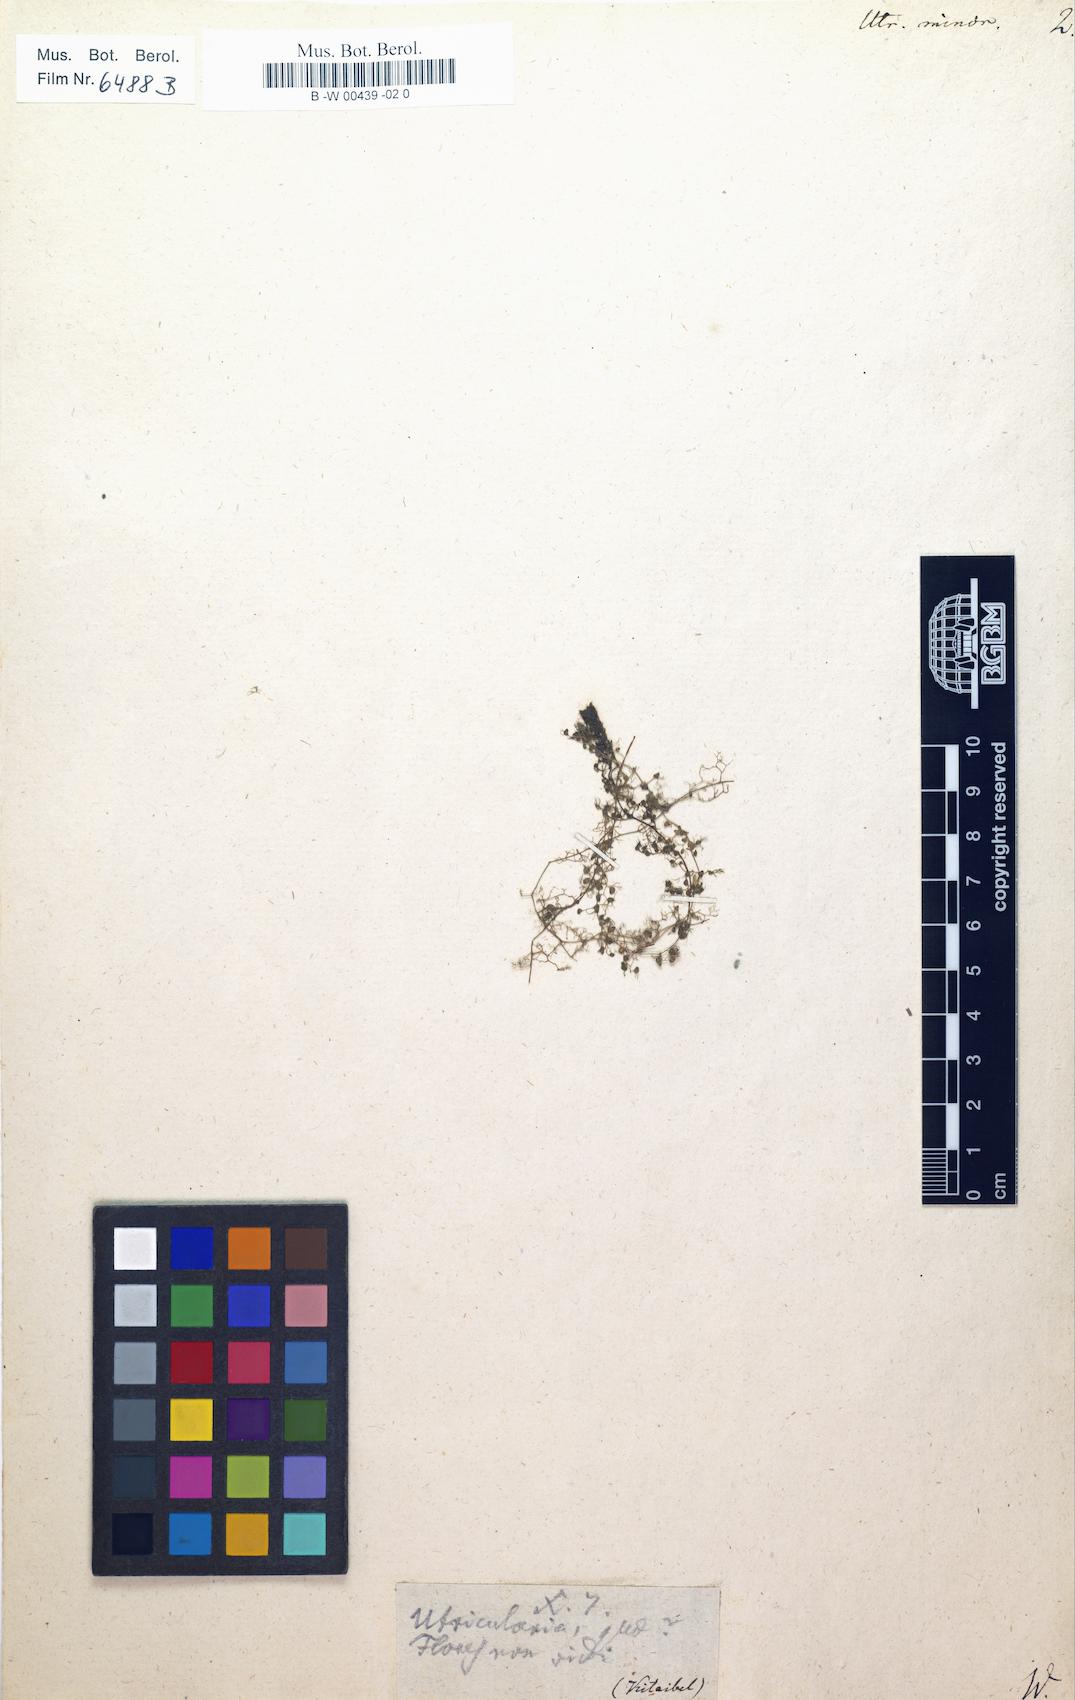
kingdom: Plantae
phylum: Tracheophyta
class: Magnoliopsida
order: Lamiales
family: Lentibulariaceae
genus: Utricularia
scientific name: Utricularia minor
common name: Lesser bladderwort
